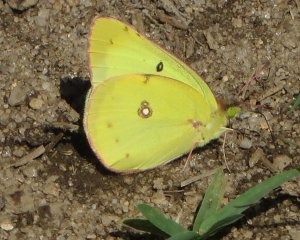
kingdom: Animalia
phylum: Arthropoda
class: Insecta
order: Lepidoptera
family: Pieridae
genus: Colias
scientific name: Colias philodice
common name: Clouded Sulphur
